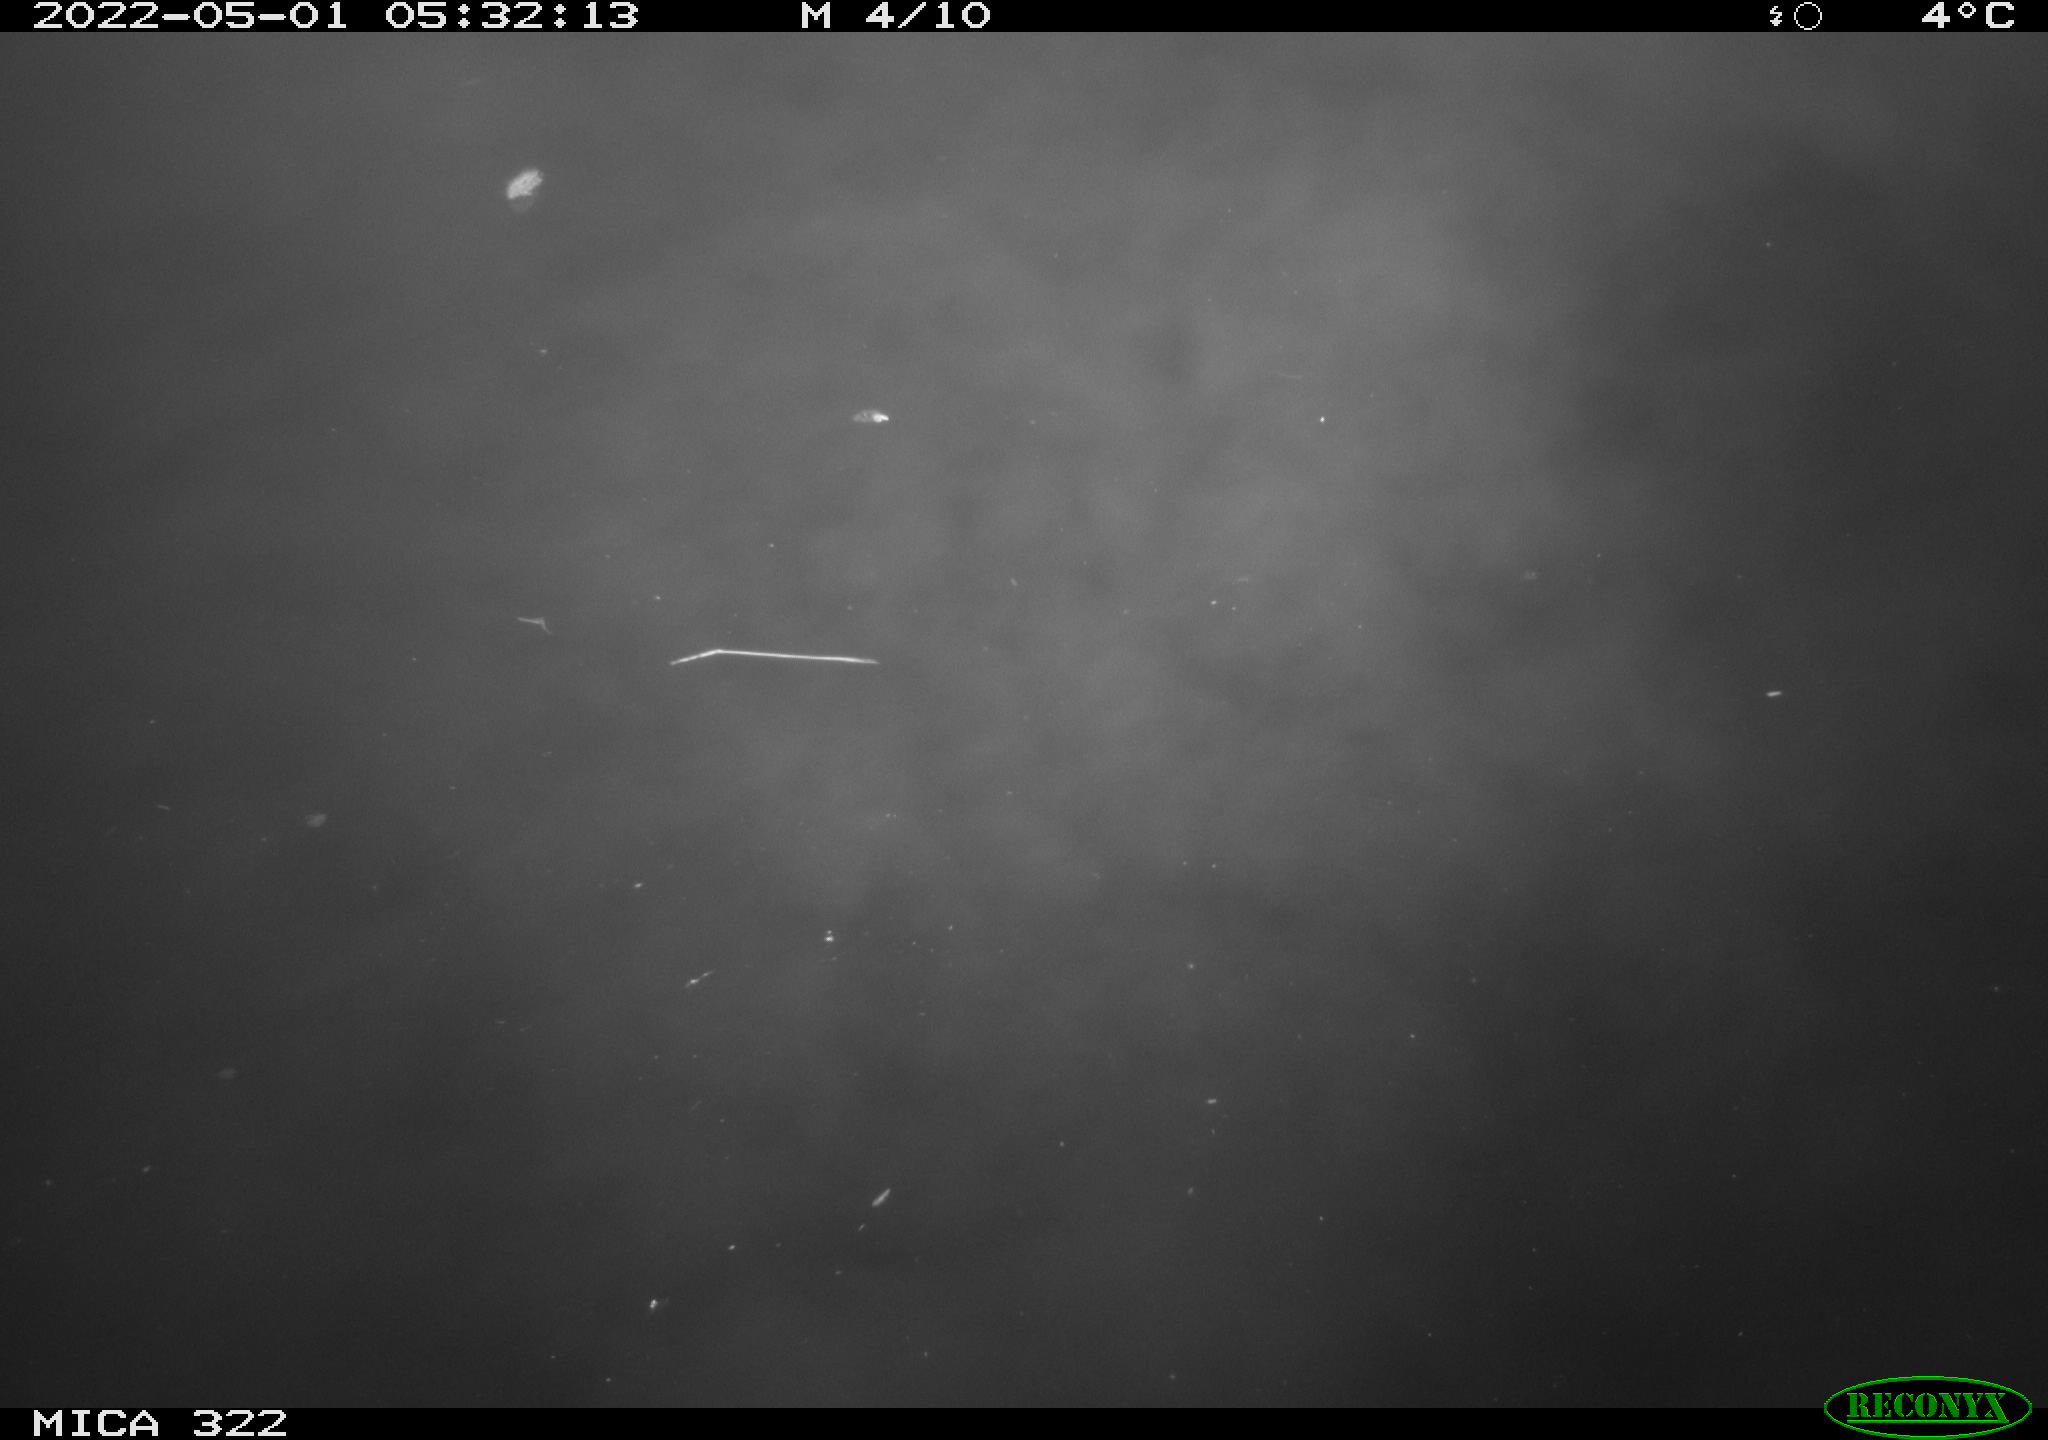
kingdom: Animalia
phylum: Chordata
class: Aves
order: Anseriformes
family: Anatidae
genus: Anas
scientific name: Anas platyrhynchos
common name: Mallard
